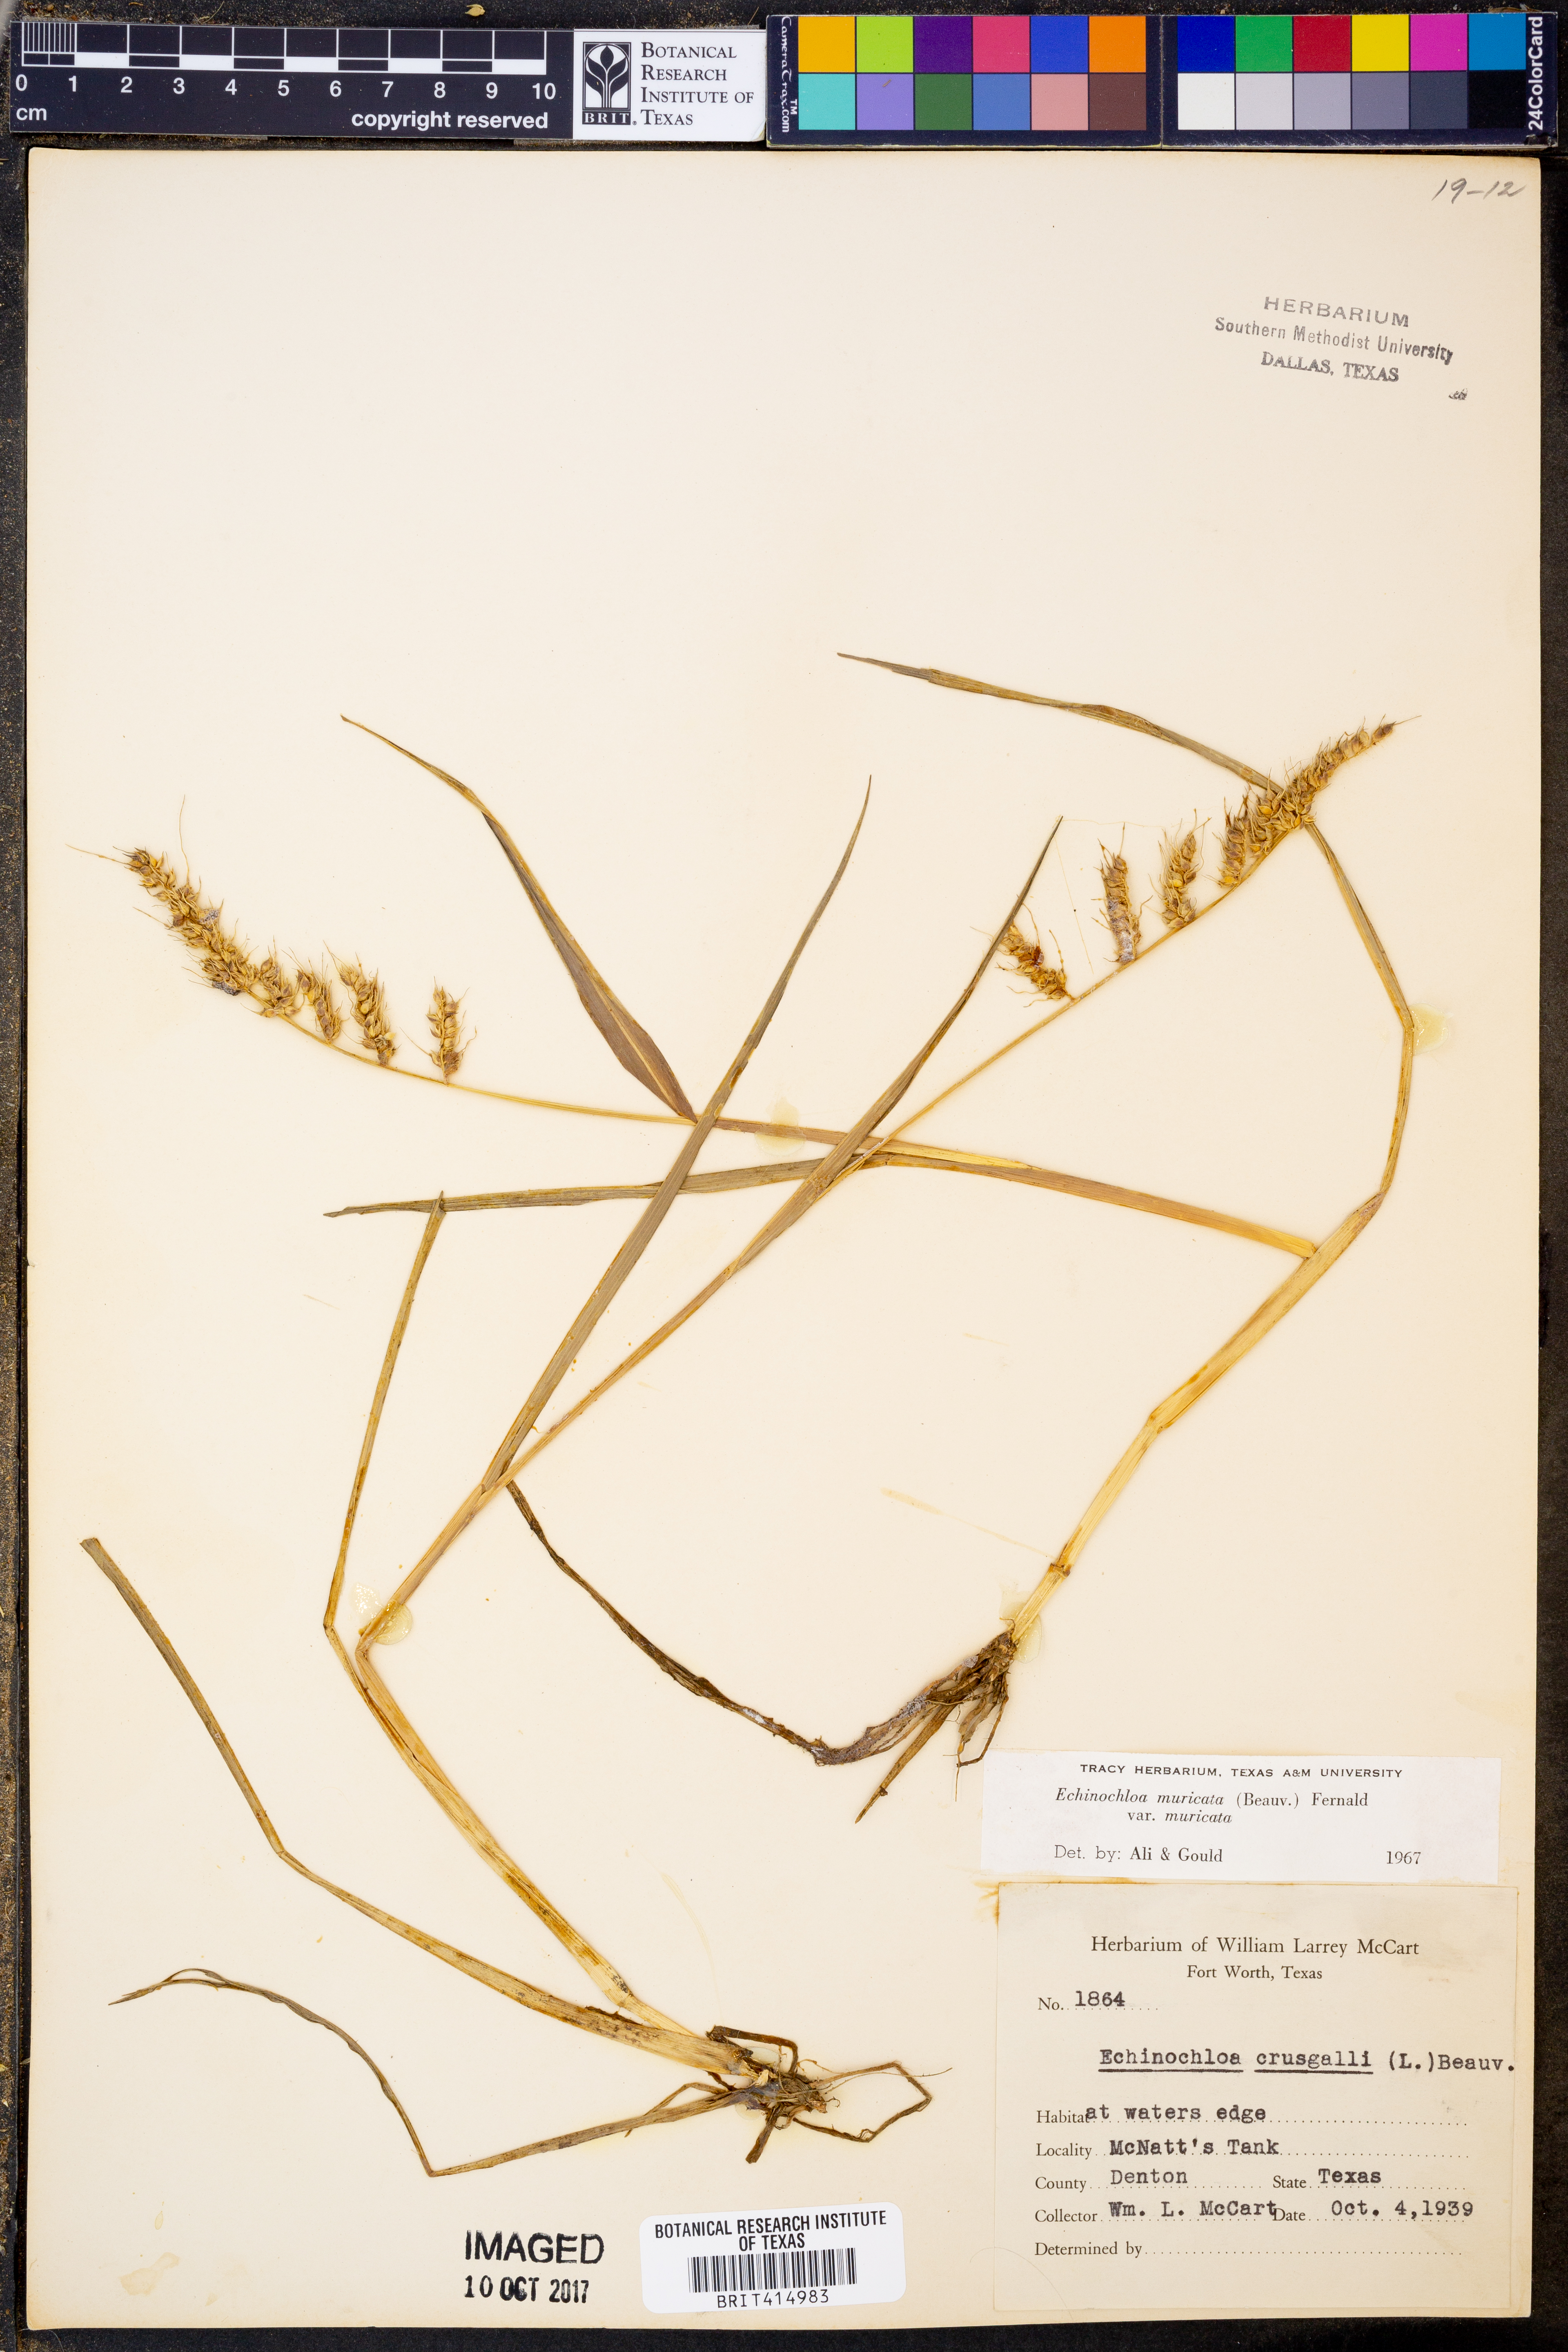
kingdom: Plantae
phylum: Tracheophyta
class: Liliopsida
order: Poales
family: Poaceae
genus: Echinochloa
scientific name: Echinochloa muricata
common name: American barnyard grass
